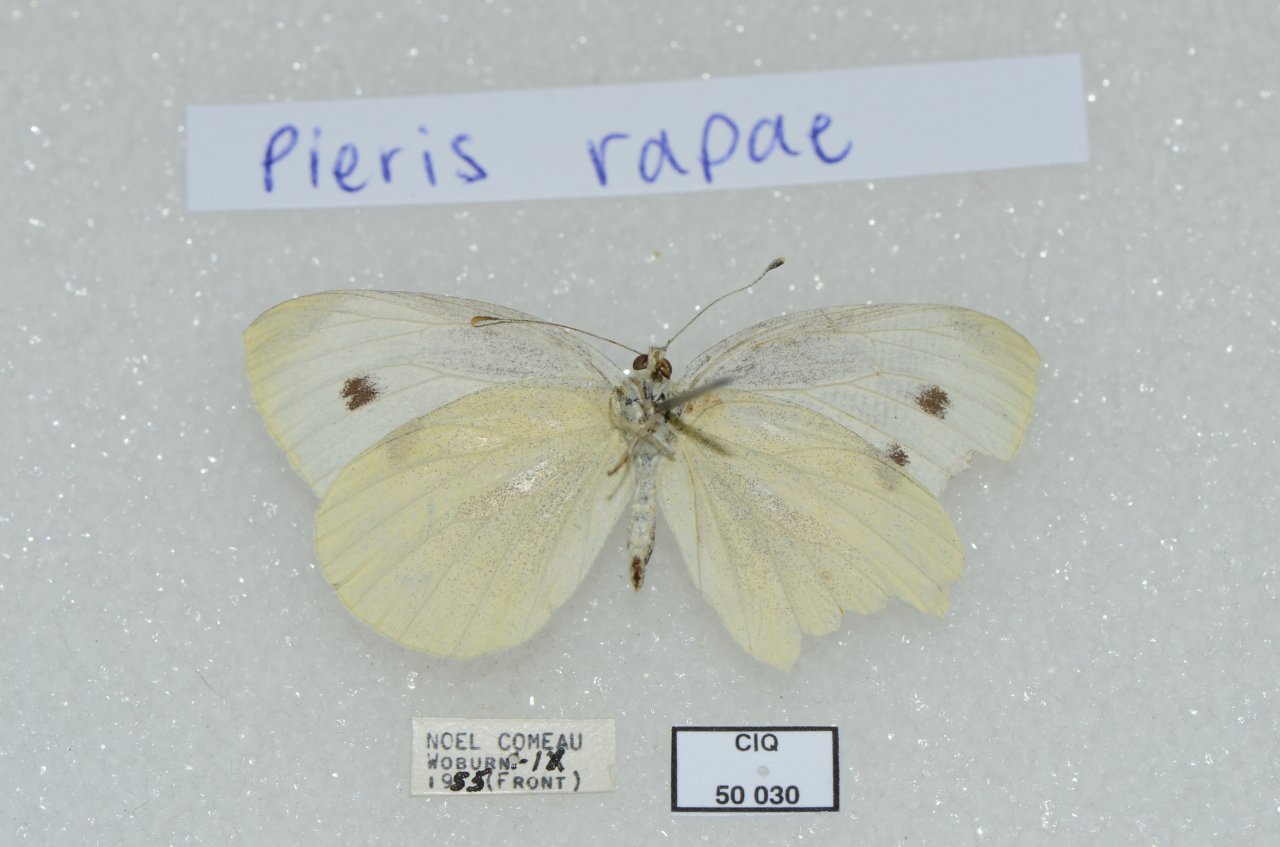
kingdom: Animalia
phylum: Arthropoda
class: Insecta
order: Lepidoptera
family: Pieridae
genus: Pieris
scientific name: Pieris rapae
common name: Cabbage White
